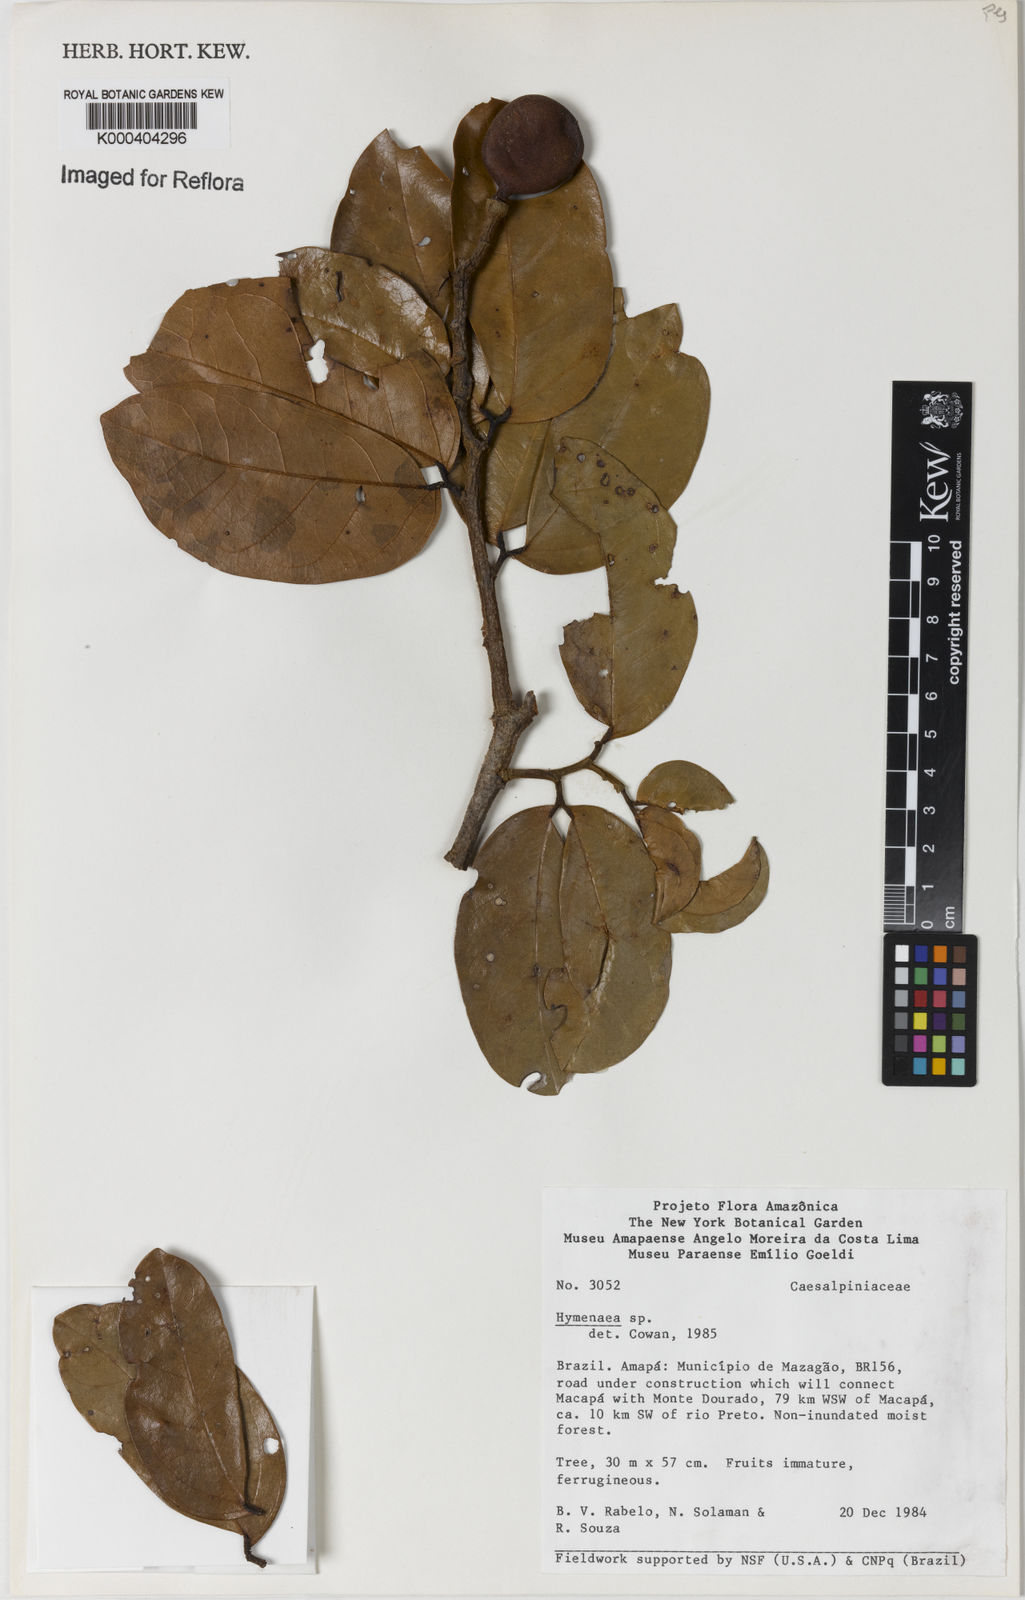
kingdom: Plantae
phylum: Tracheophyta
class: Magnoliopsida
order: Fabales
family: Fabaceae
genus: Hymenaea
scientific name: Hymenaea
